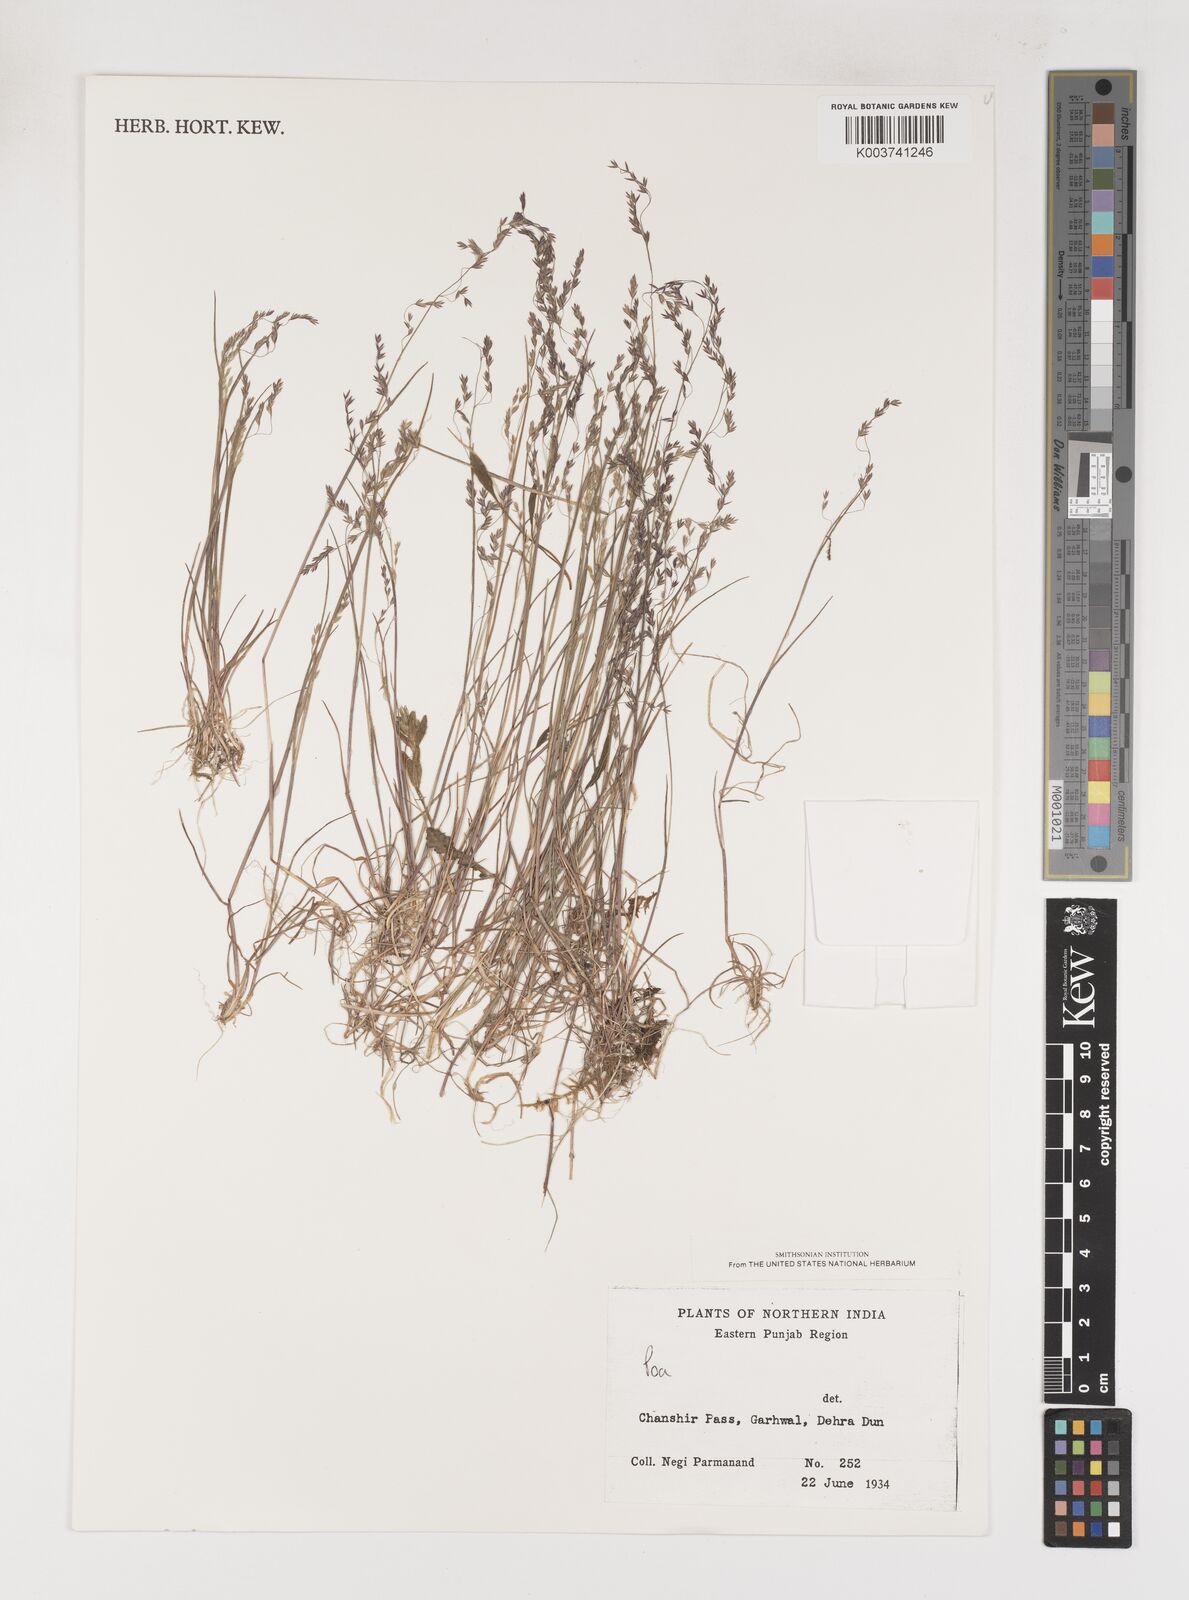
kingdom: Plantae
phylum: Tracheophyta
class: Liliopsida
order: Poales
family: Poaceae
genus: Poa
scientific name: Poa
